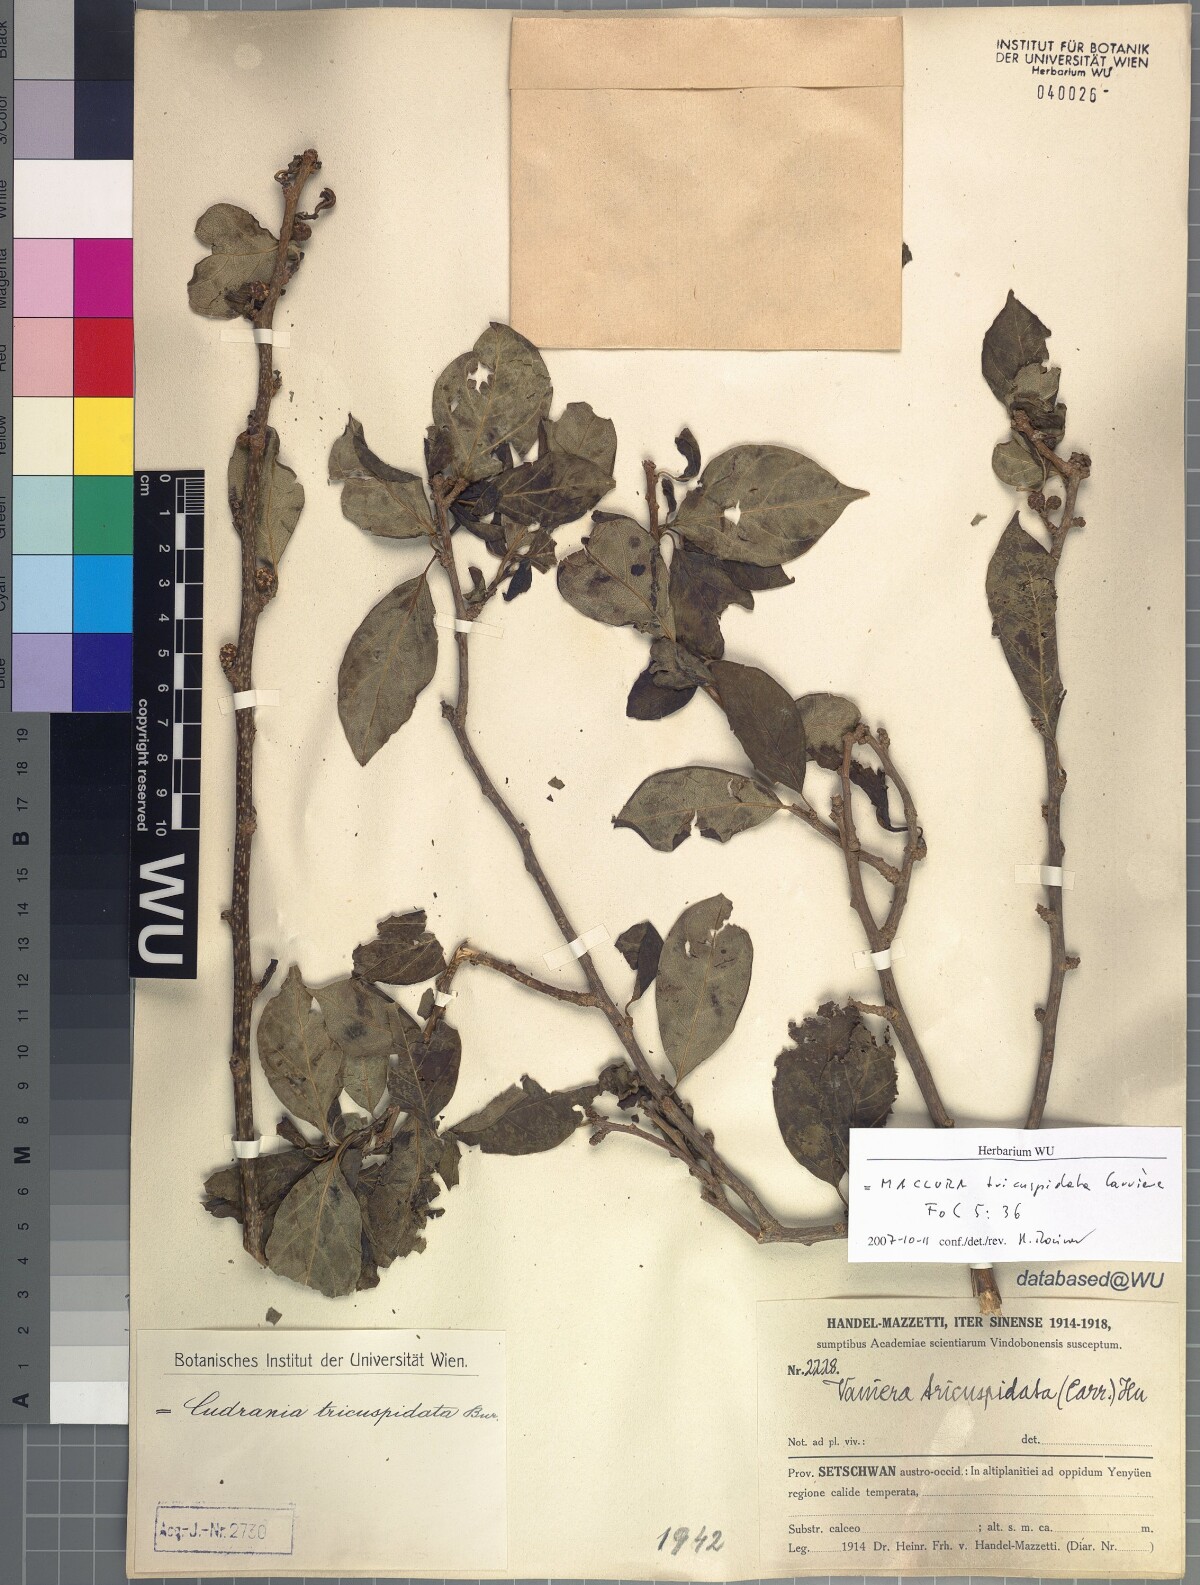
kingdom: Plantae
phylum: Tracheophyta
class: Magnoliopsida
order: Rosales
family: Moraceae
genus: Maclura
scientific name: Maclura tricuspidata
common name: Storehousebush
